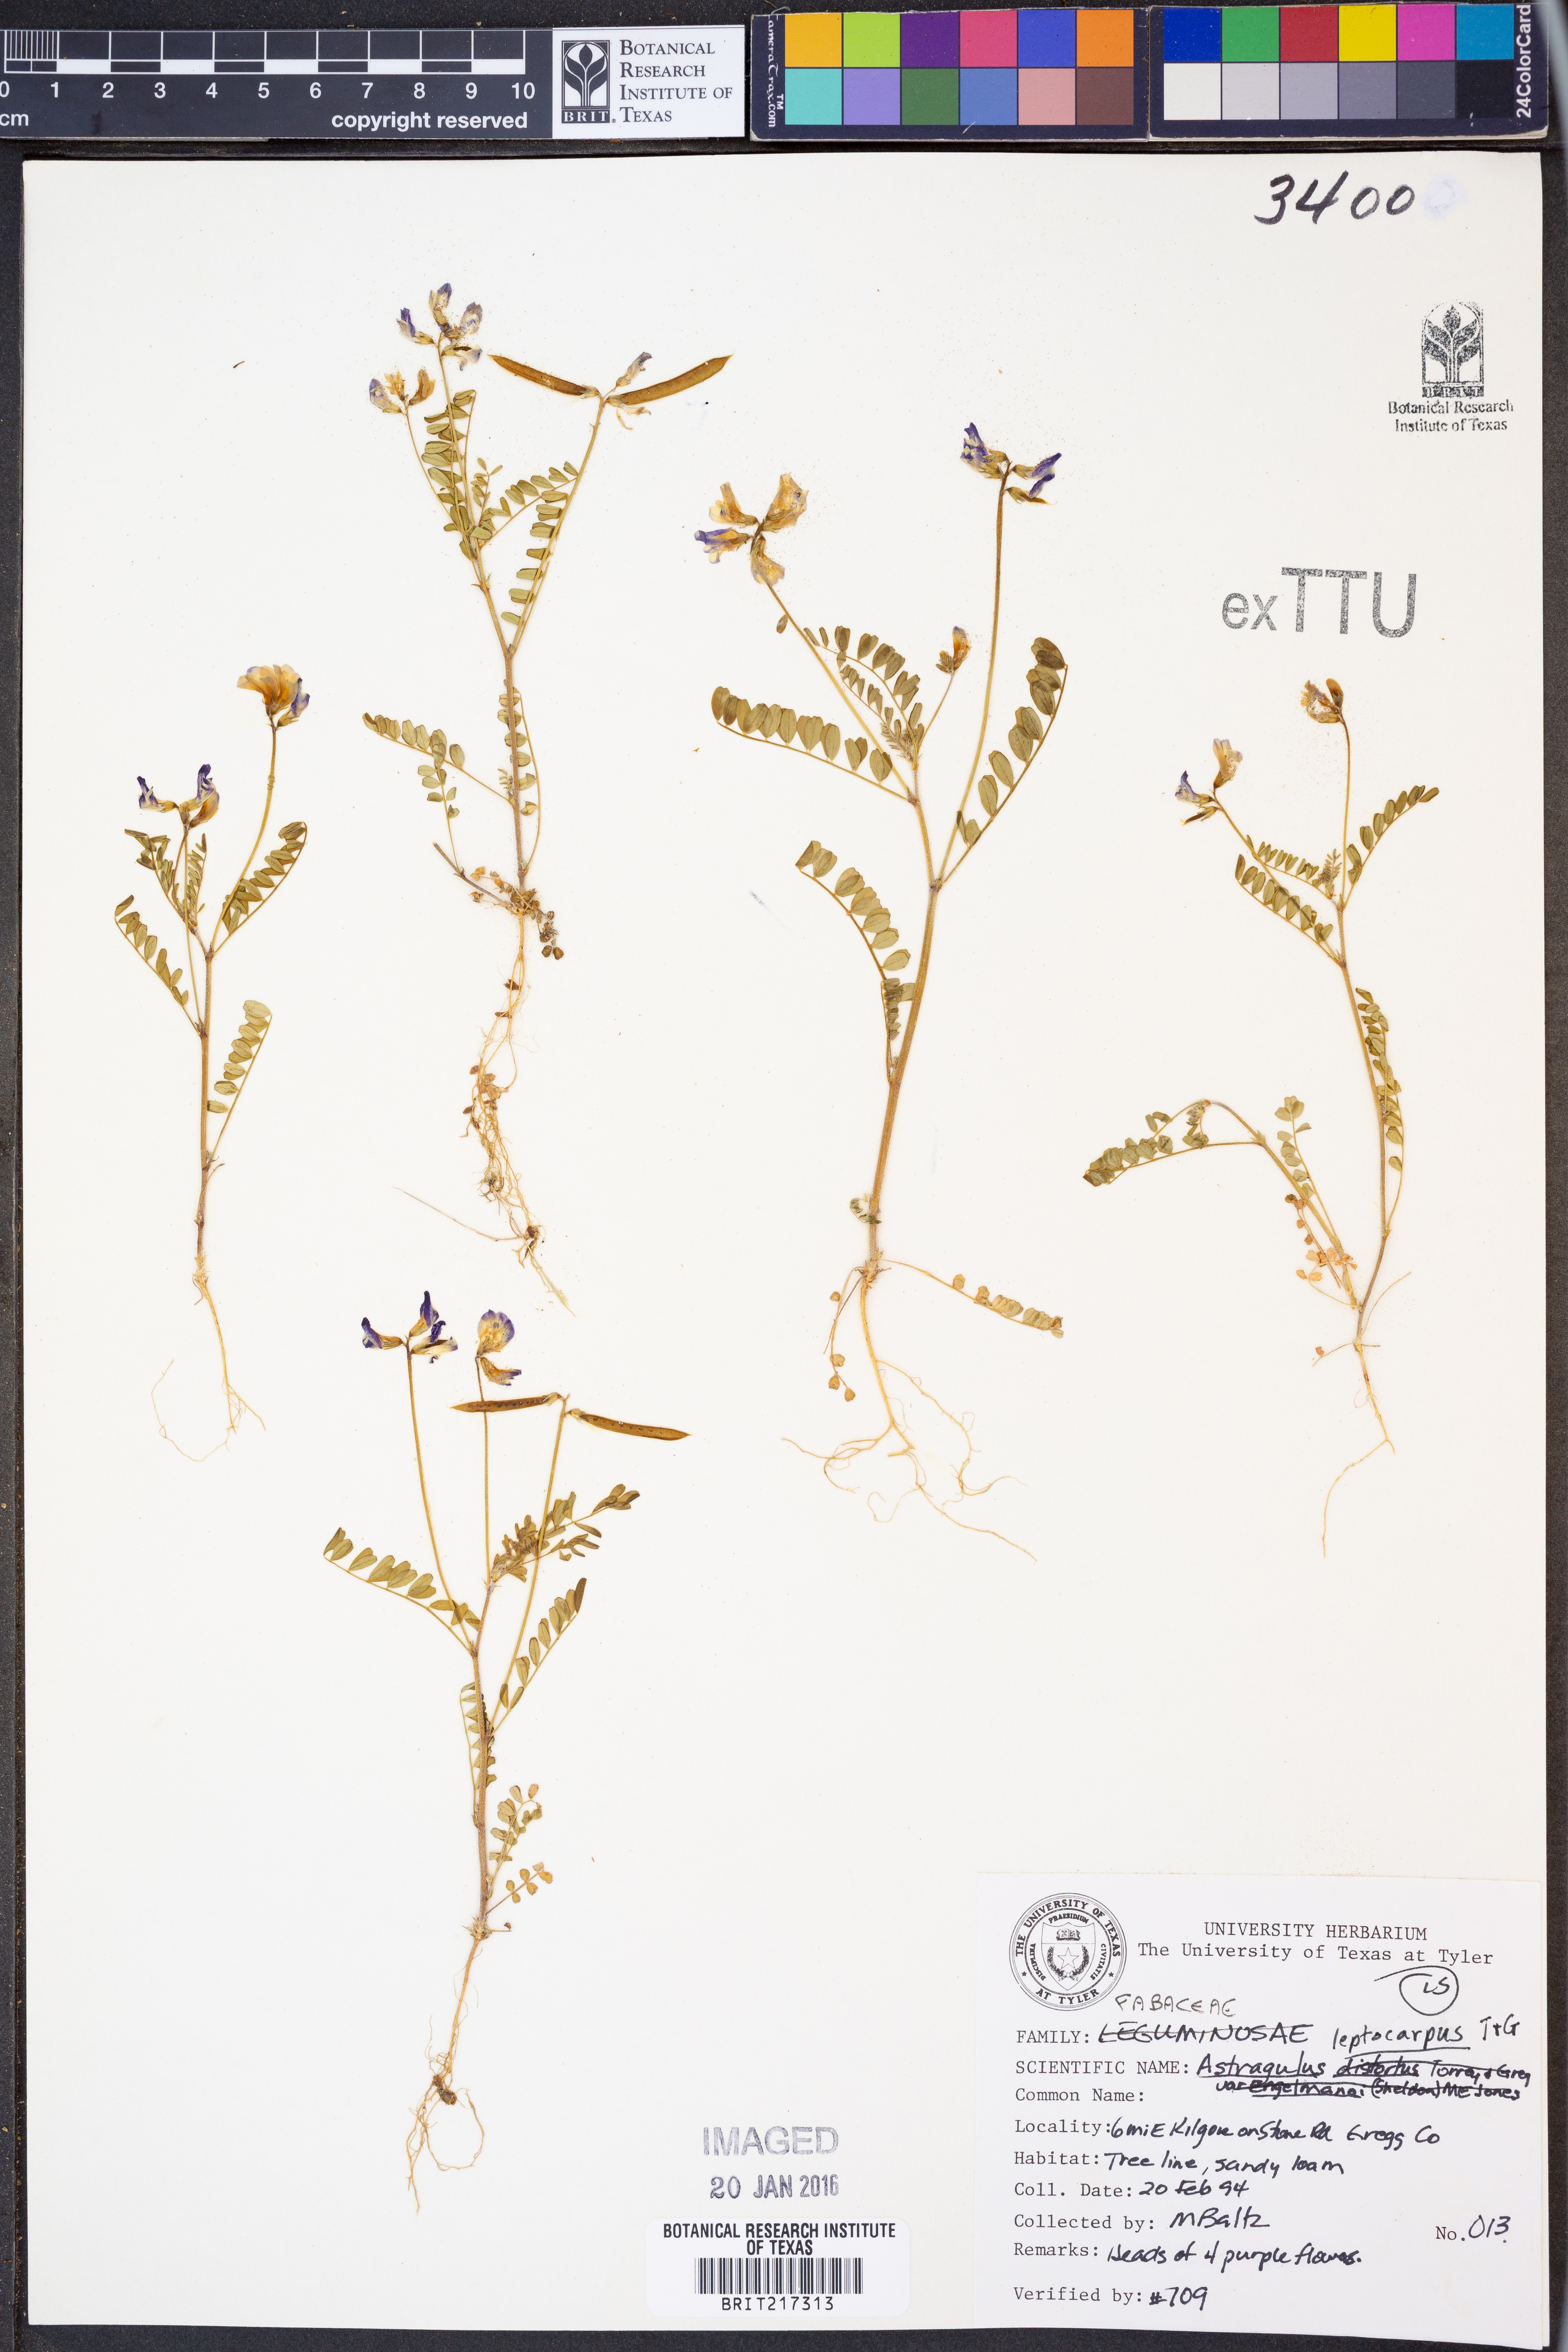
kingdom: Plantae
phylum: Tracheophyta
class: Magnoliopsida
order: Fabales
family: Fabaceae
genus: Astragalus
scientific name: Astragalus leptocarpus
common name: Bodkin milk-vetch
